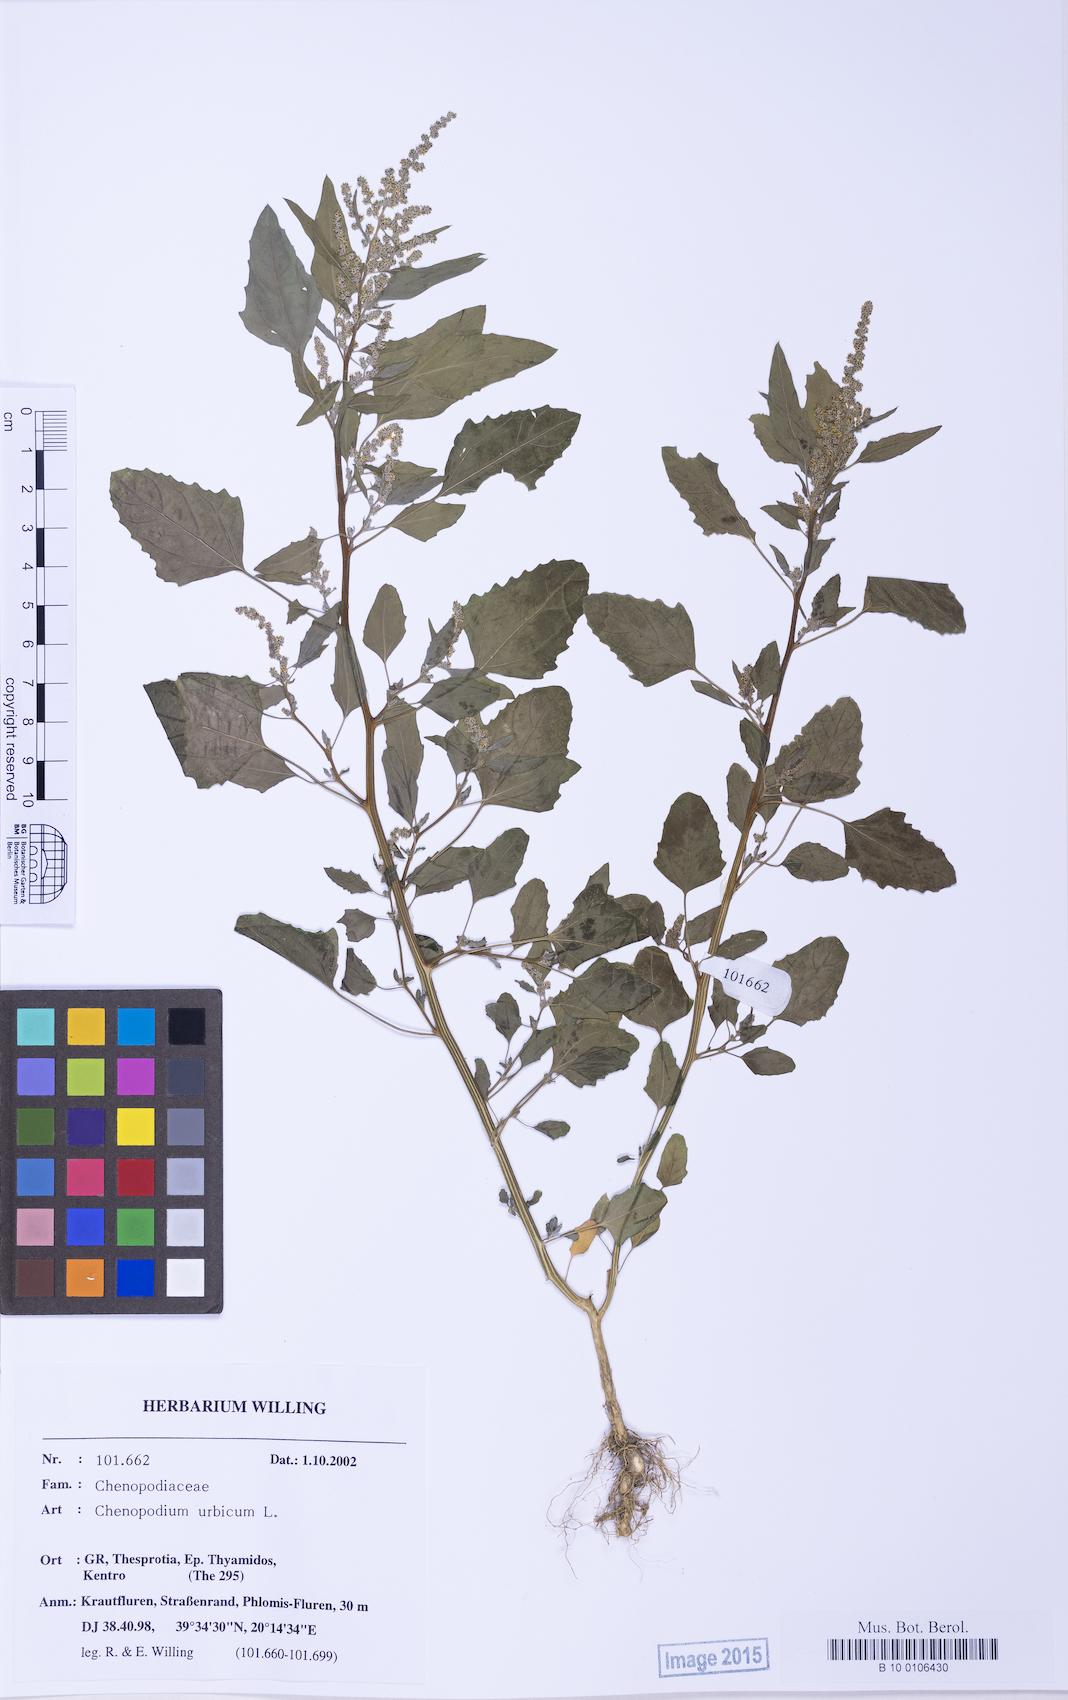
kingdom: Plantae
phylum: Tracheophyta
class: Magnoliopsida
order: Caryophyllales
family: Amaranthaceae
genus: Chenopodium
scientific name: Chenopodium album
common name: Fat-hen
